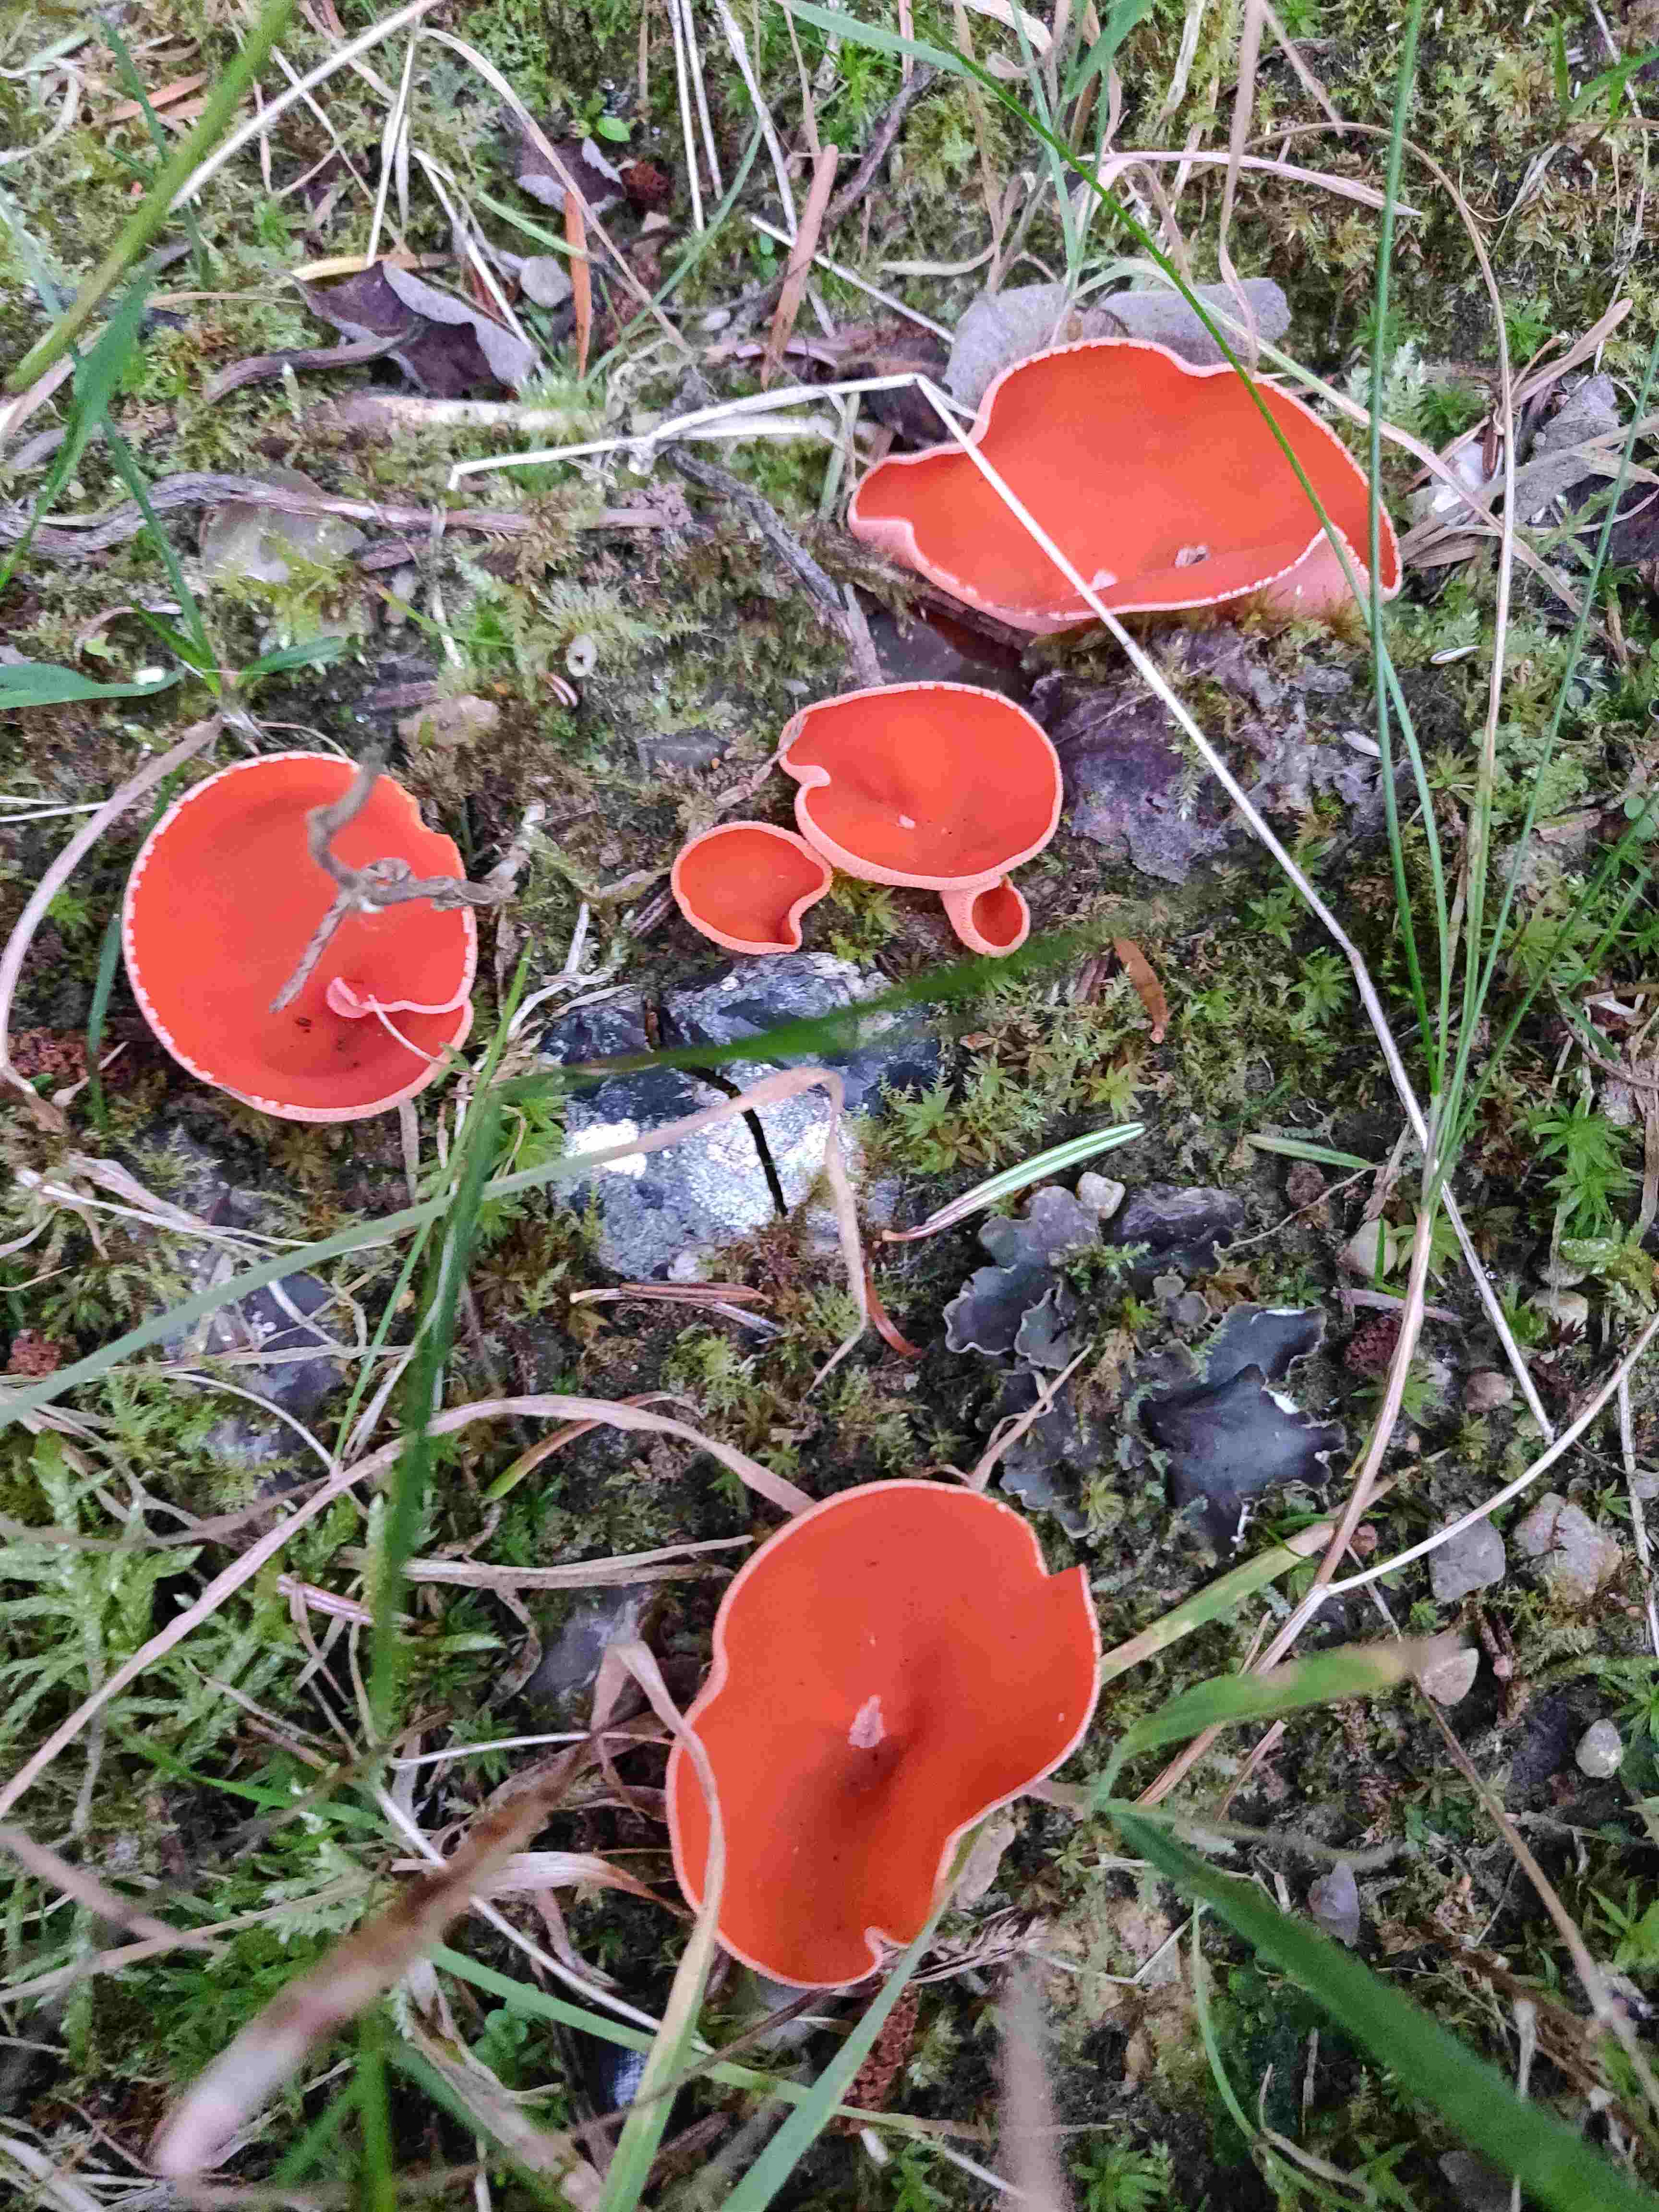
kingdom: Fungi
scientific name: Fungi
